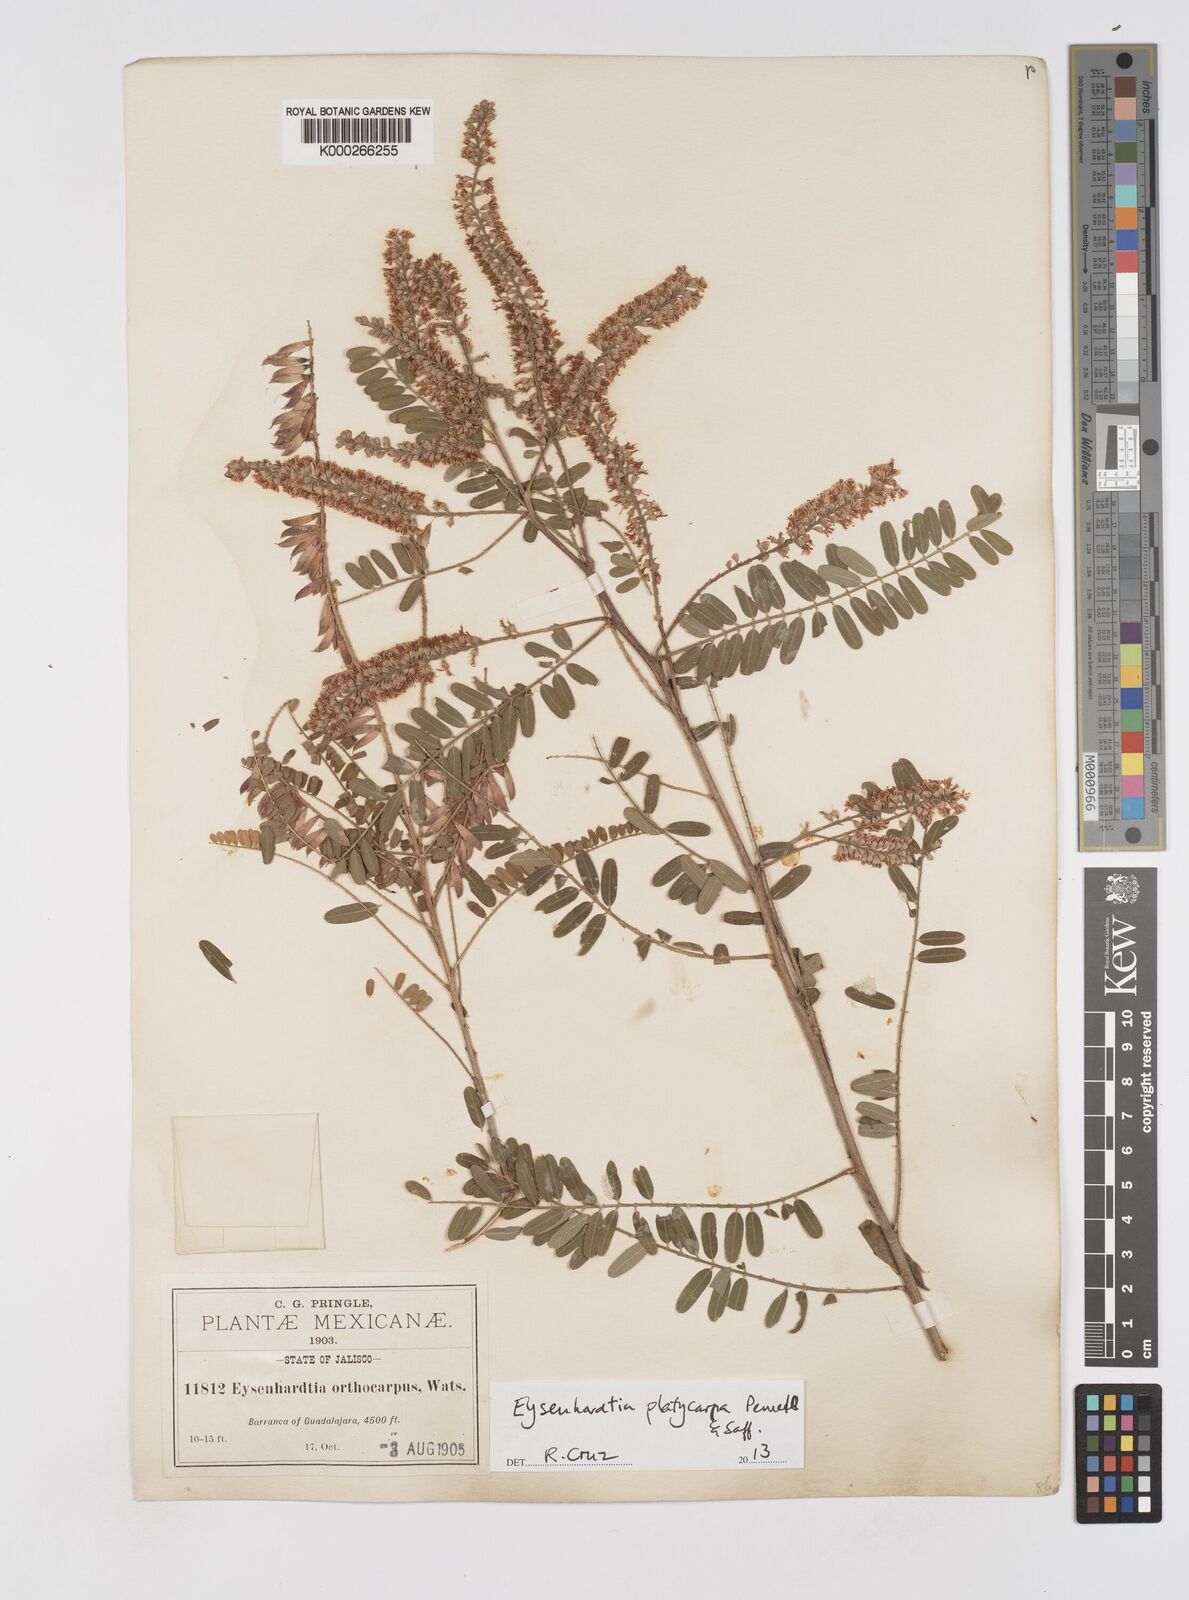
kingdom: Plantae
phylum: Tracheophyta
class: Magnoliopsida
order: Fabales
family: Fabaceae
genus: Eysenhardtia
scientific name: Eysenhardtia platycarpa
